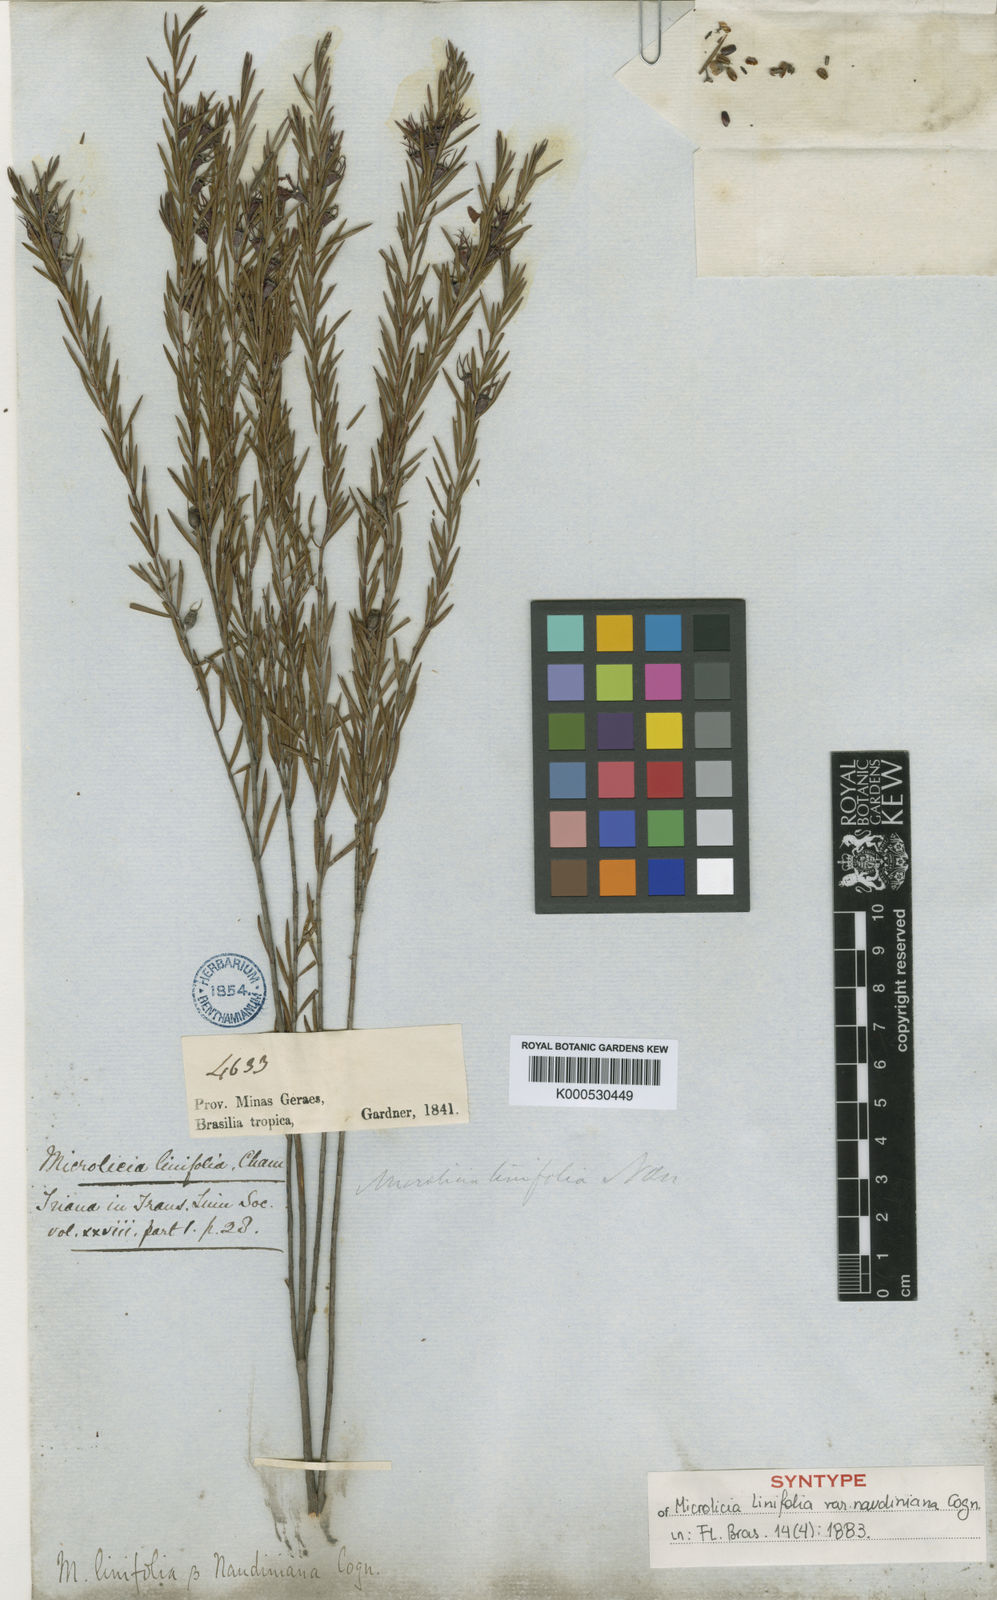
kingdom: Plantae
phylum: Tracheophyta
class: Magnoliopsida
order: Myrtales
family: Melastomataceae
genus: Microlicia
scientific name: Microlicia acerosa
